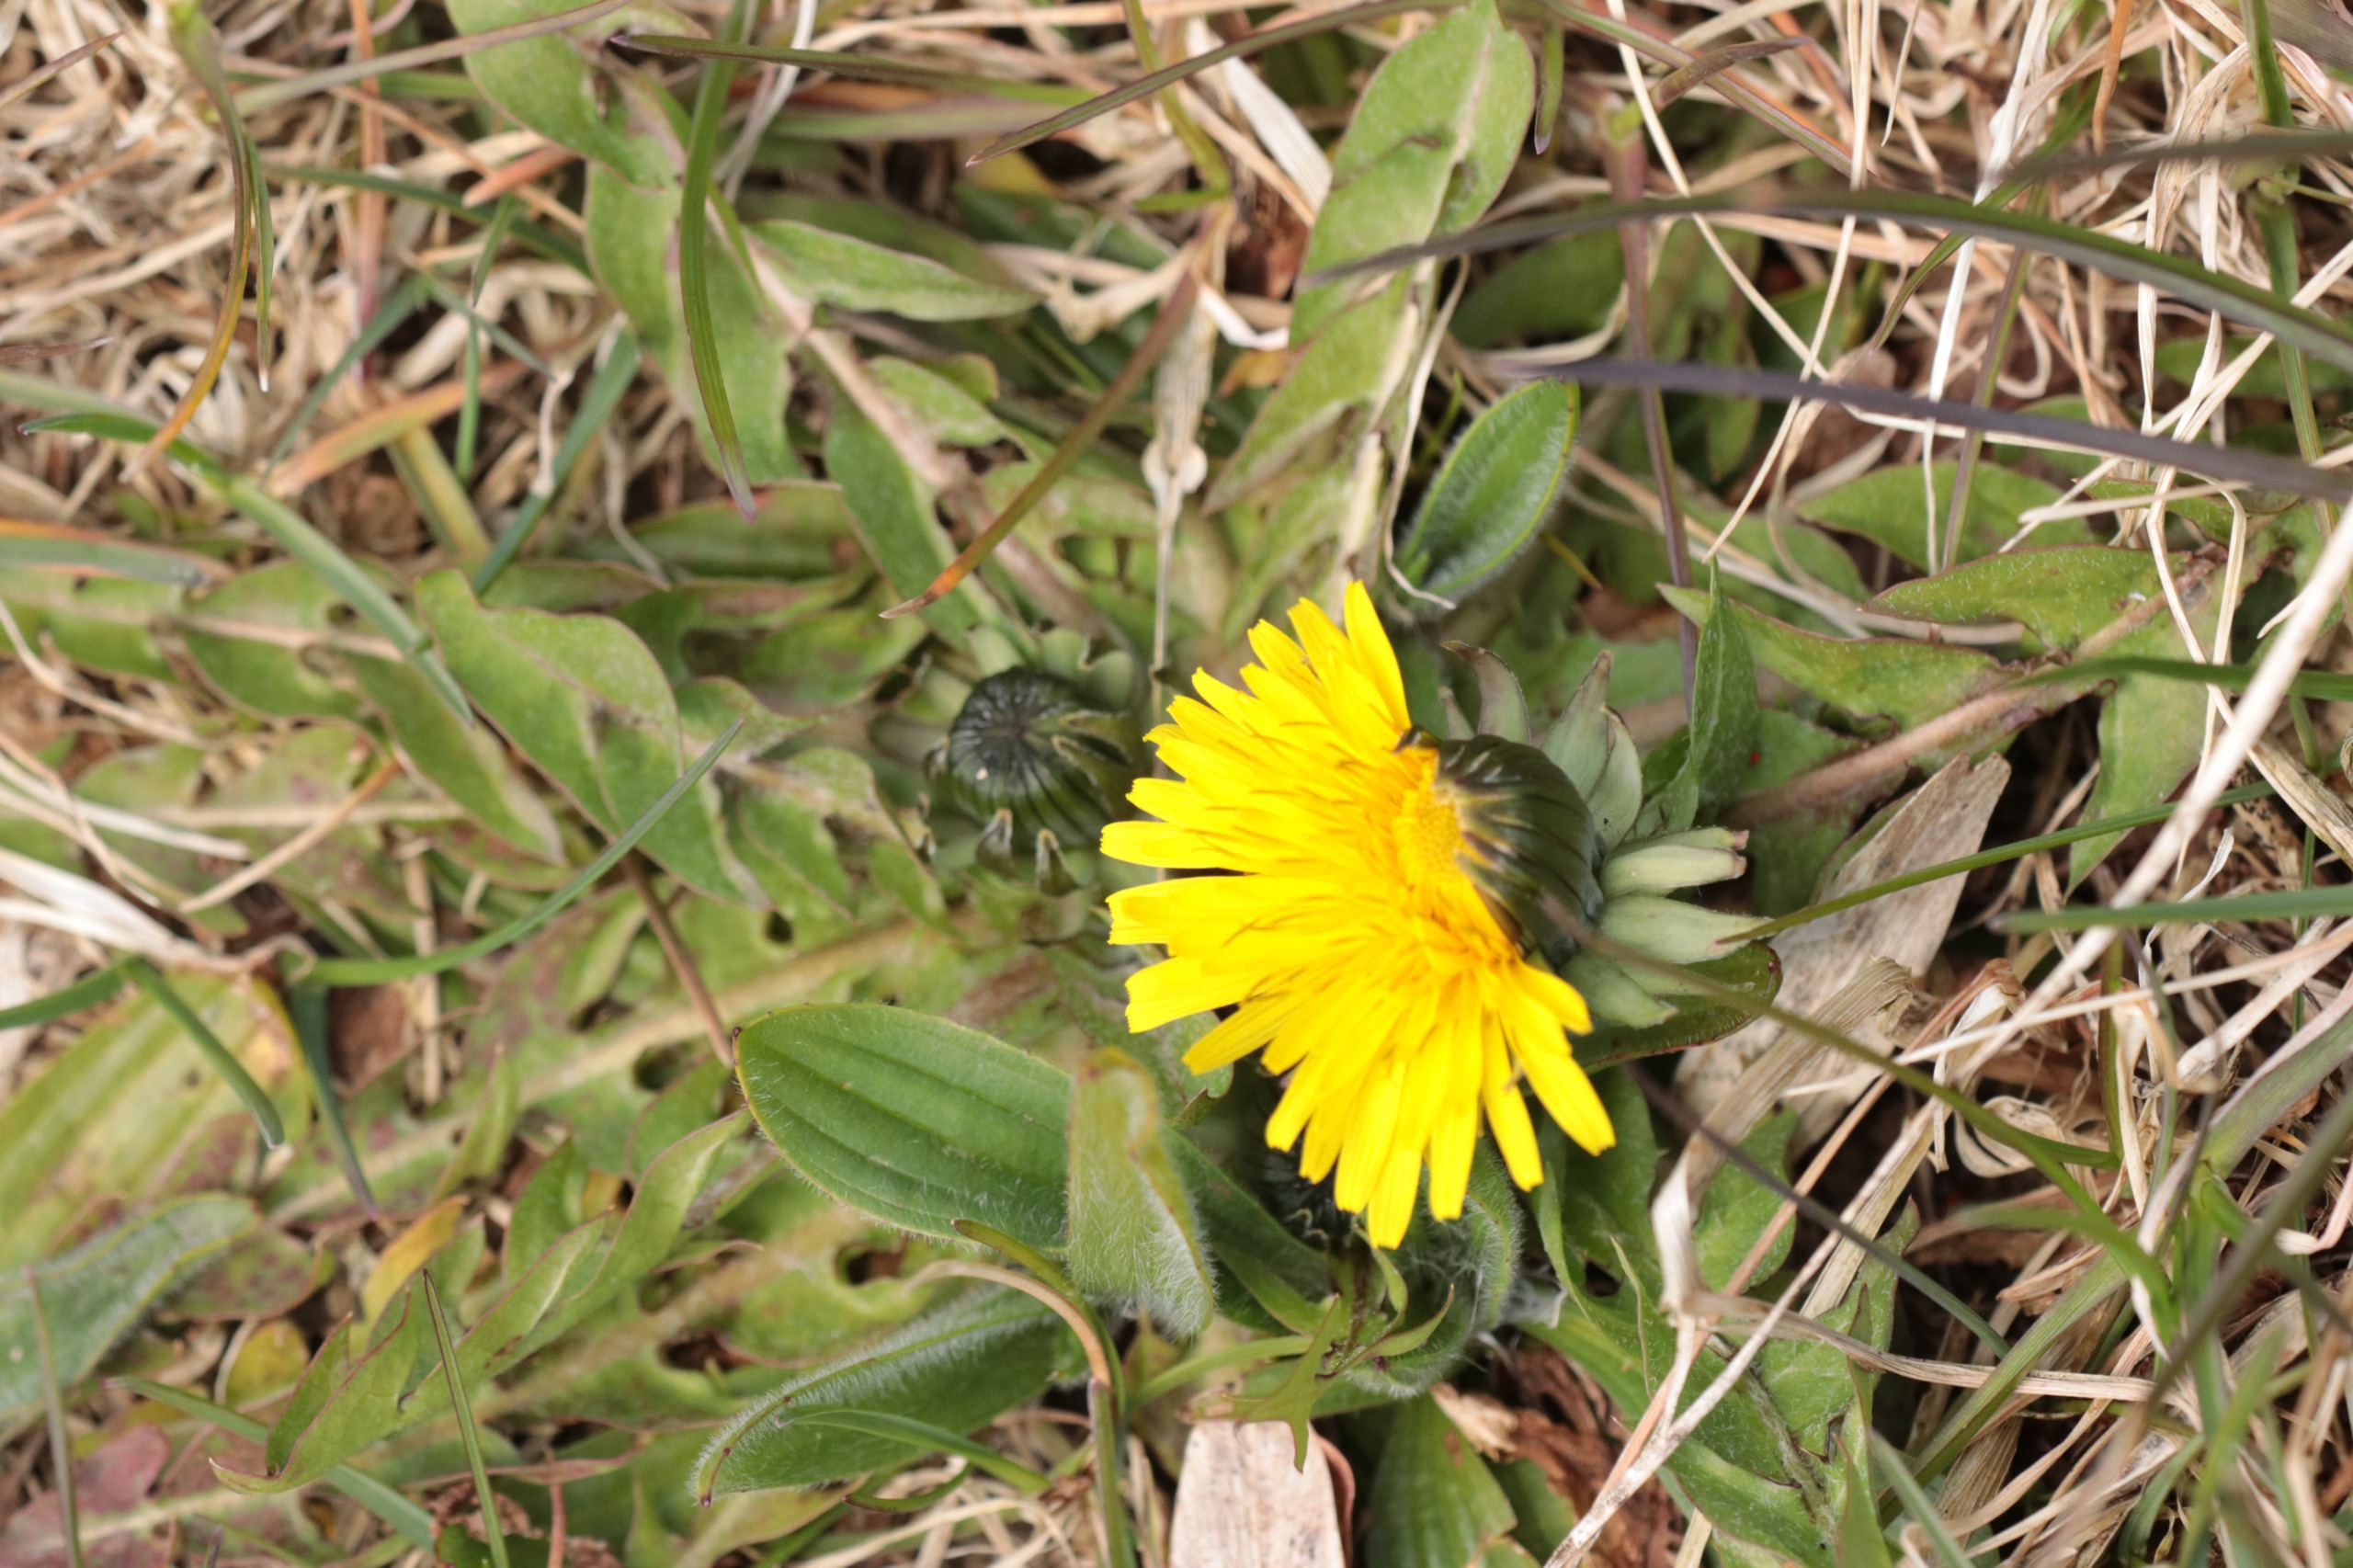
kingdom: Plantae
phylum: Tracheophyta
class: Magnoliopsida
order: Asterales
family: Asteraceae
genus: Taraxacum
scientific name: Taraxacum
